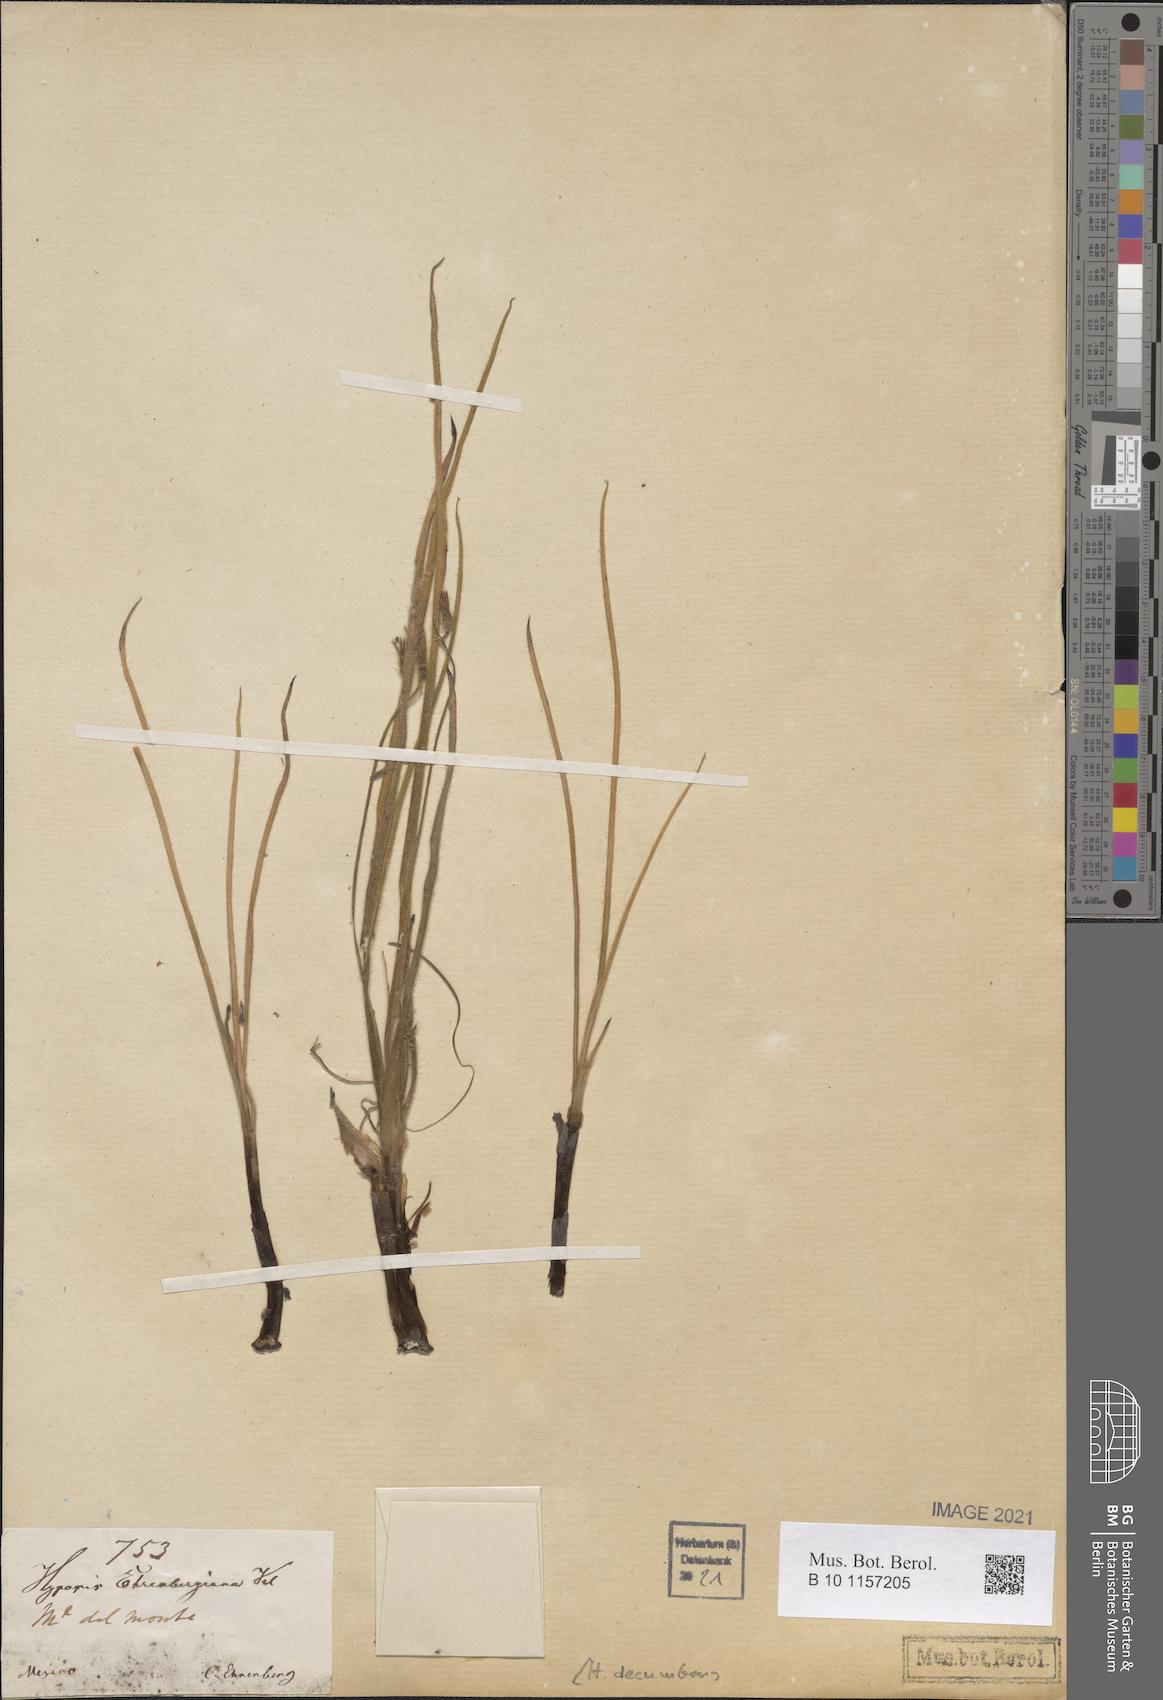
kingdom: Plantae
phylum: Tracheophyta
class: Liliopsida
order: Asparagales
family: Hypoxidaceae
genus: Hypoxis
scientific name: Hypoxis decumbens
